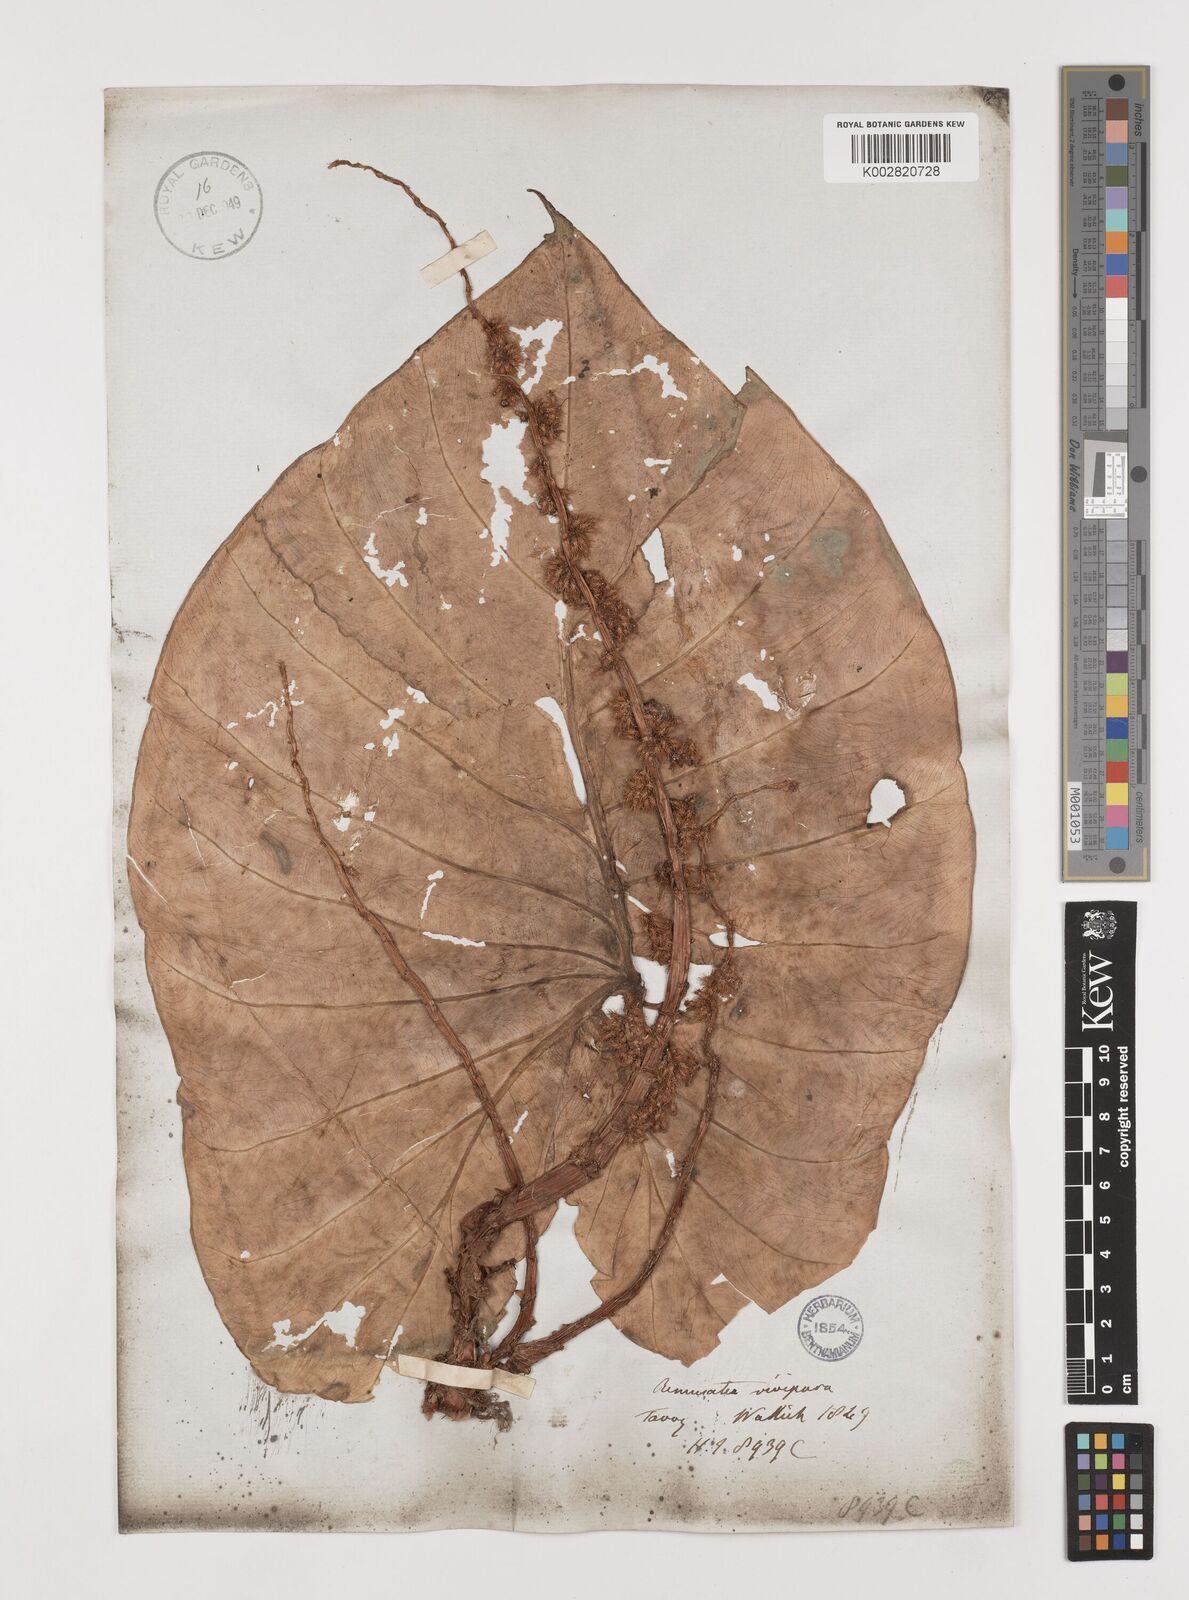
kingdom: Plantae
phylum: Tracheophyta
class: Liliopsida
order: Alismatales
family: Araceae
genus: Remusatia
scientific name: Remusatia vivipara
